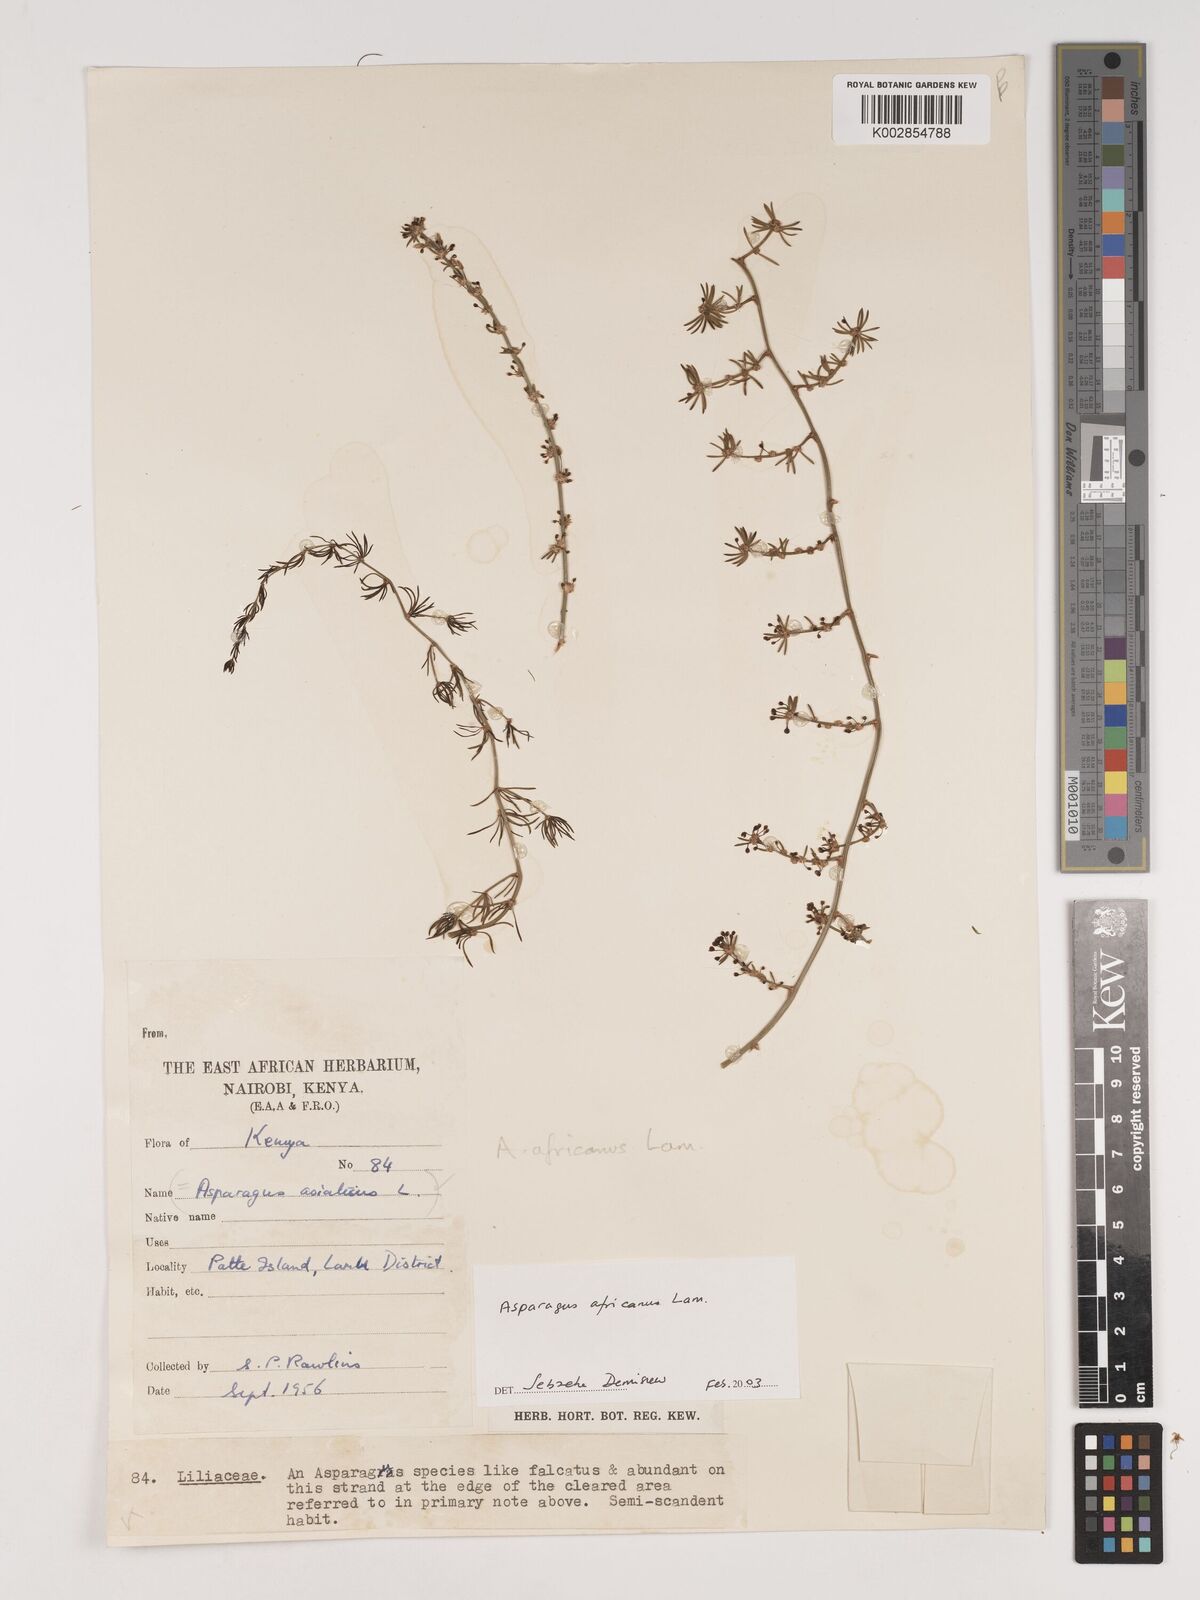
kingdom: Plantae
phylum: Tracheophyta
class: Liliopsida
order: Asparagales
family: Asparagaceae
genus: Asparagus
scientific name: Asparagus africanus
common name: Asparagus-fern
